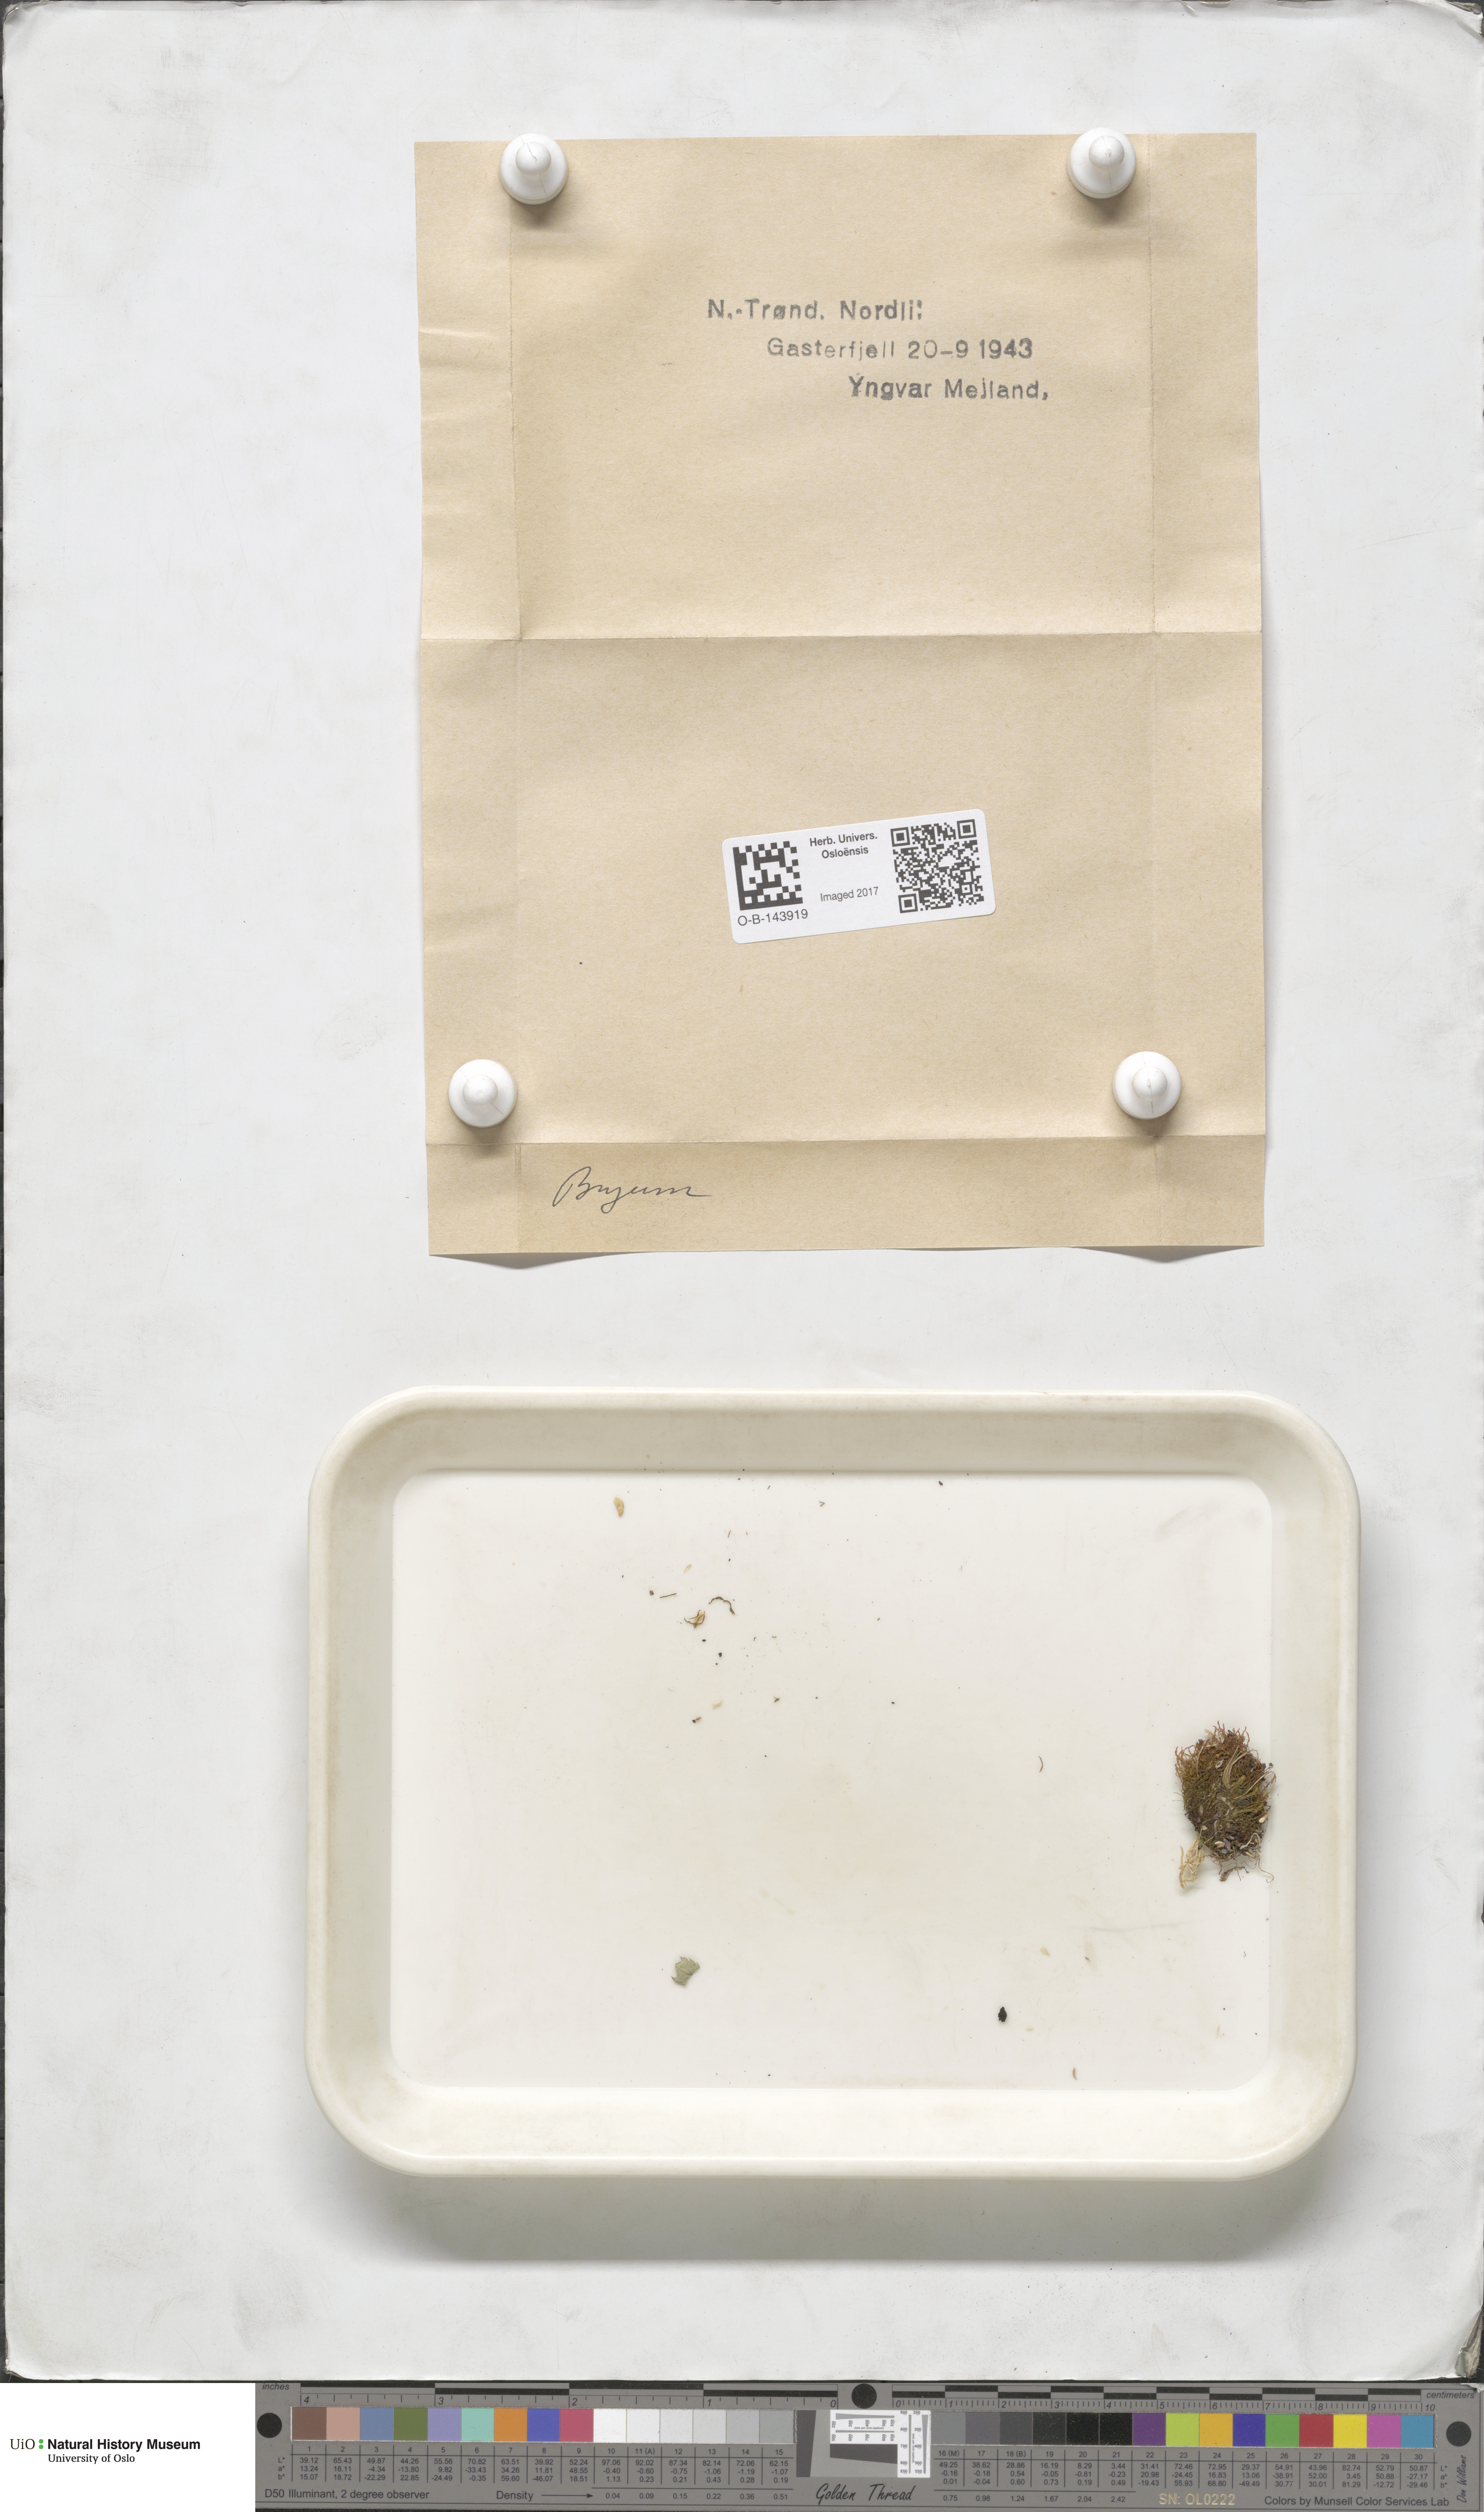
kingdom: Plantae
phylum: Bryophyta
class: Bryopsida
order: Bryales
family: Bryaceae
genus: Bryum
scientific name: Bryum
